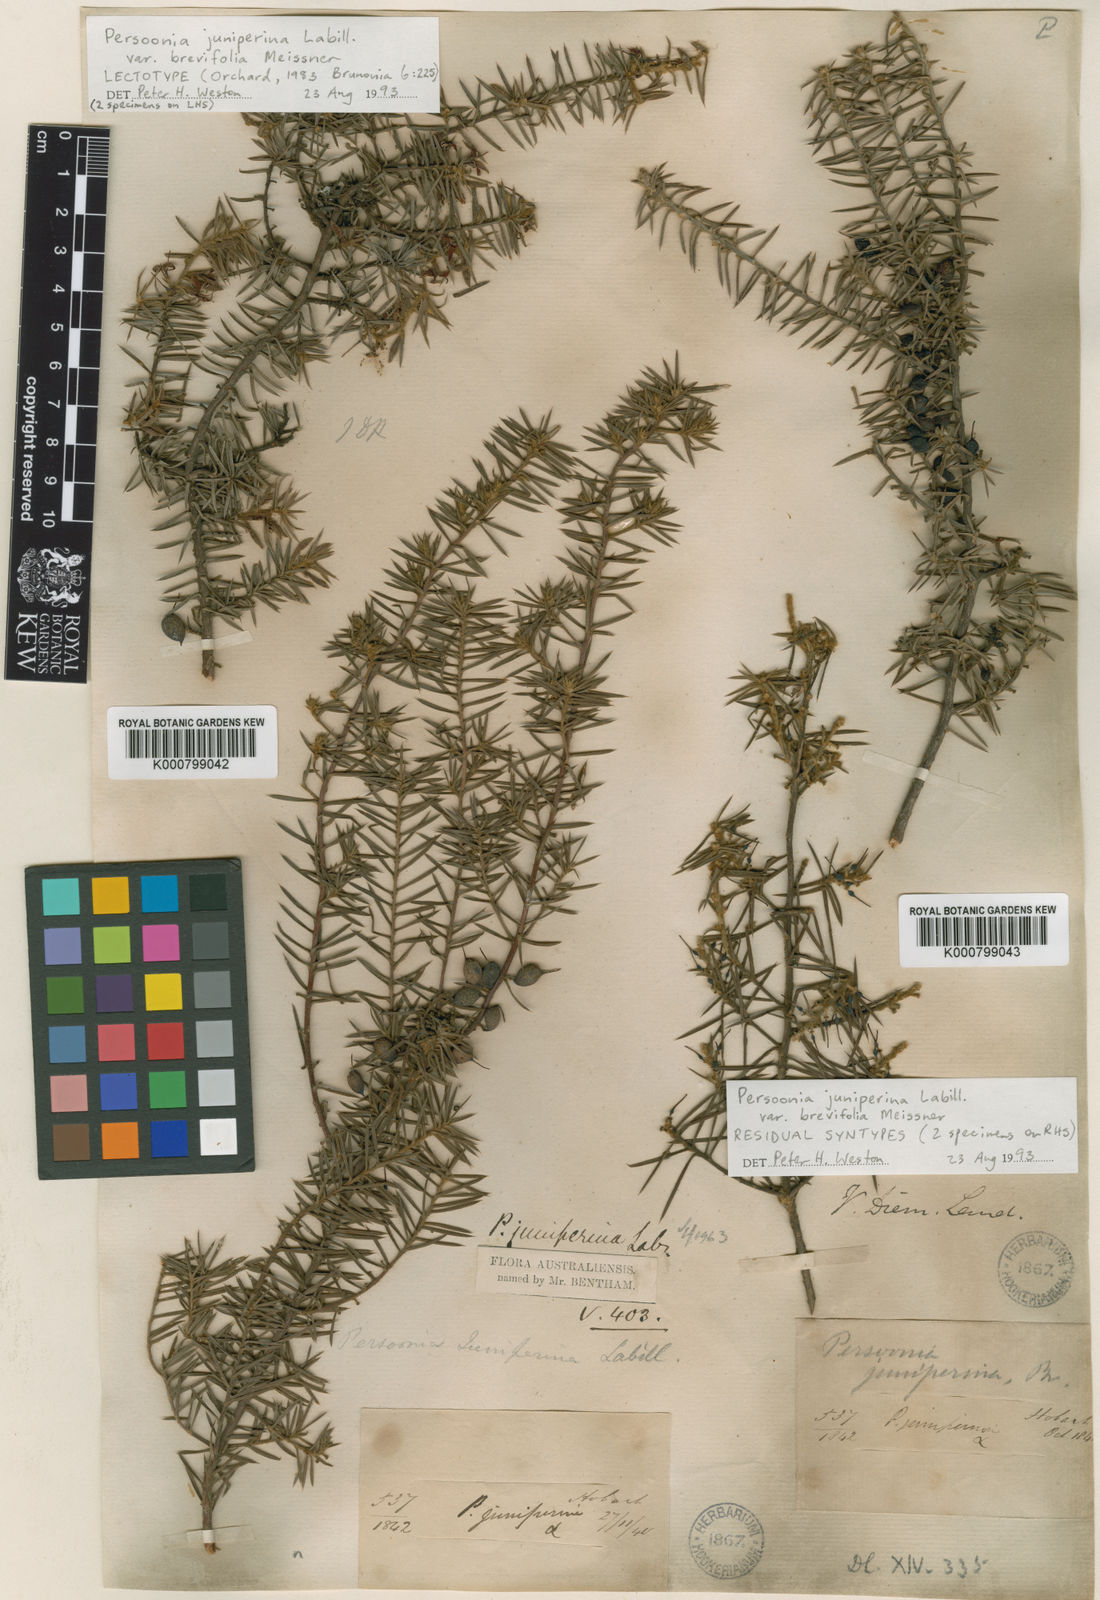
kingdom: Plantae
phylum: Tracheophyta
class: Magnoliopsida
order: Proteales
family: Proteaceae
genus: Persoonia
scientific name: Persoonia juniperina
